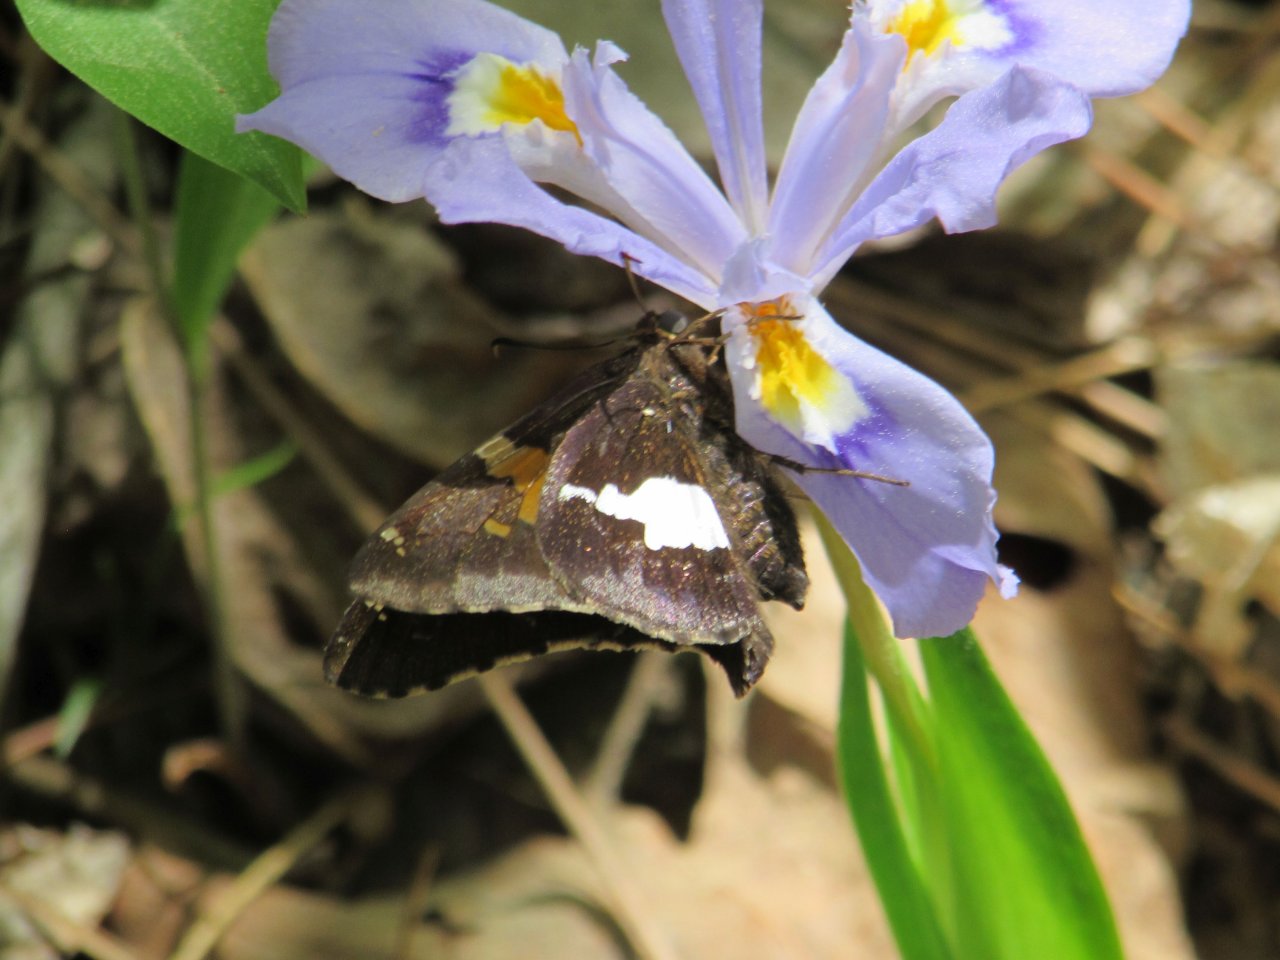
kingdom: Animalia
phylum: Arthropoda
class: Insecta
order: Lepidoptera
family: Hesperiidae
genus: Epargyreus
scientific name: Epargyreus clarus
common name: Silver-spotted Skipper
